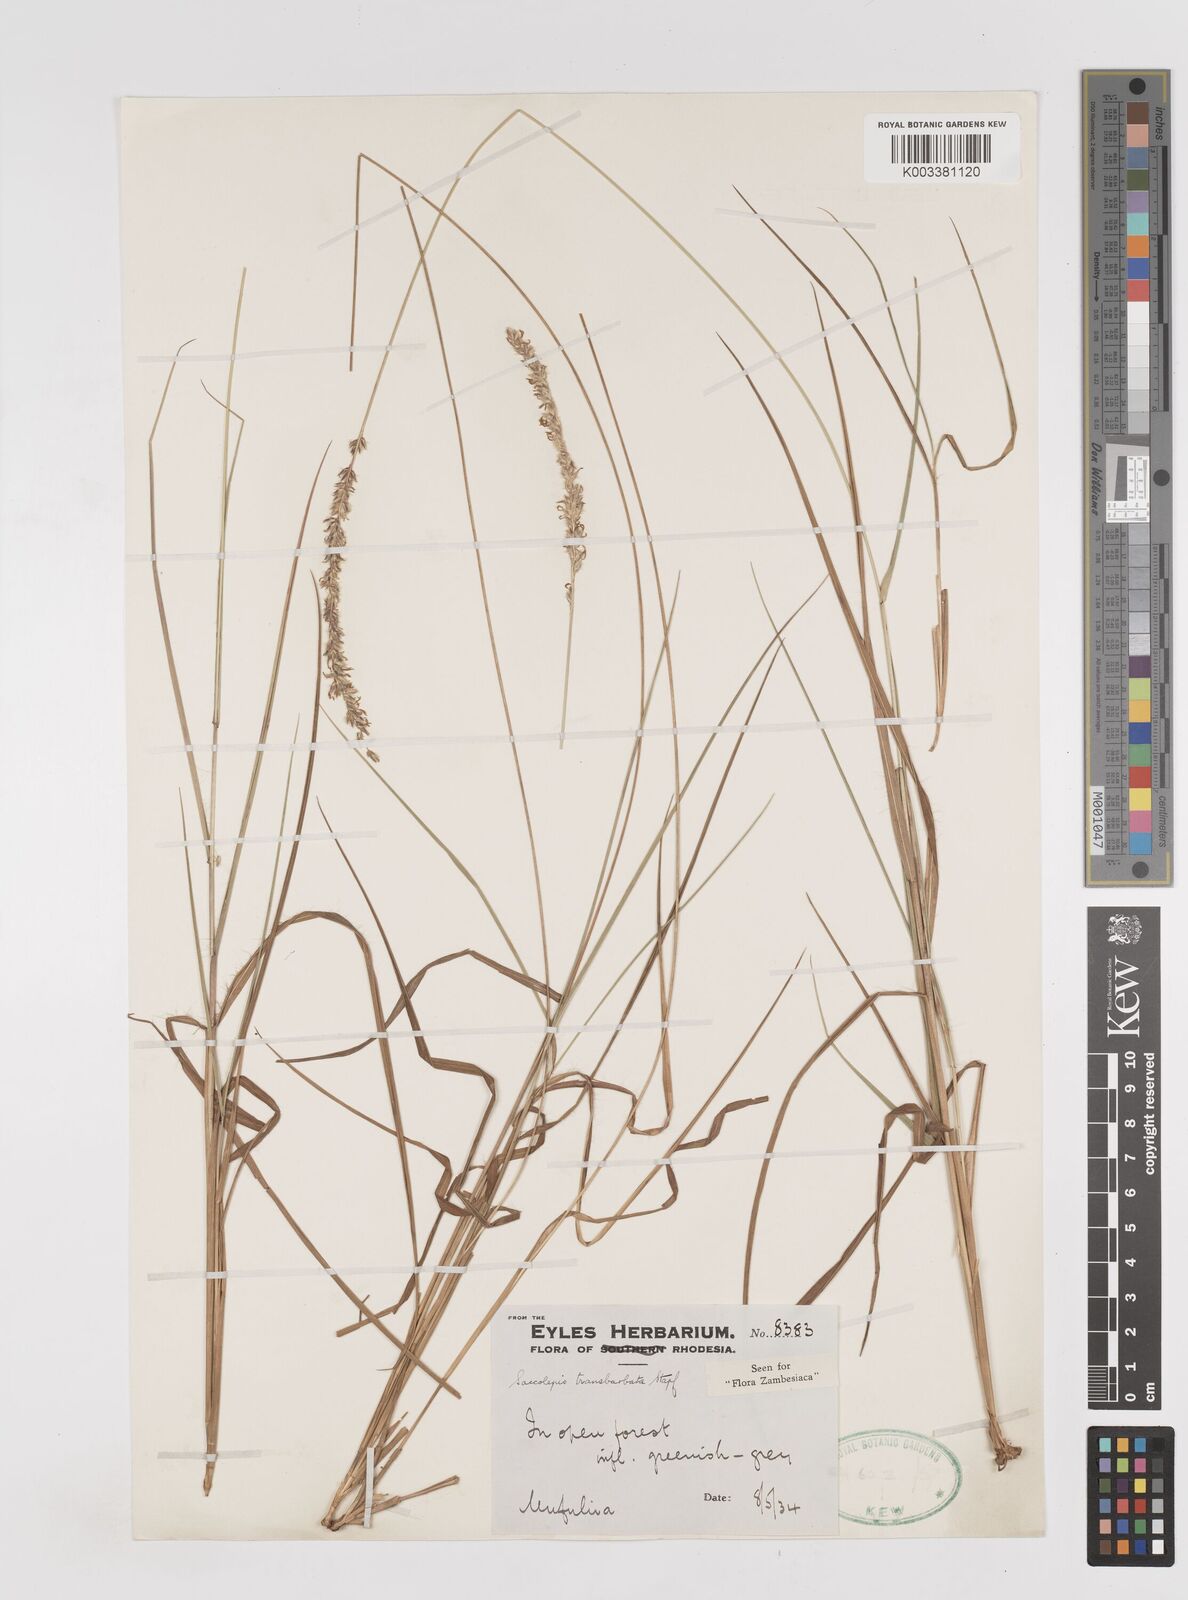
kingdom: Plantae
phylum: Tracheophyta
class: Liliopsida
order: Poales
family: Poaceae
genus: Sacciolepis
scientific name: Sacciolepis transbarbata
